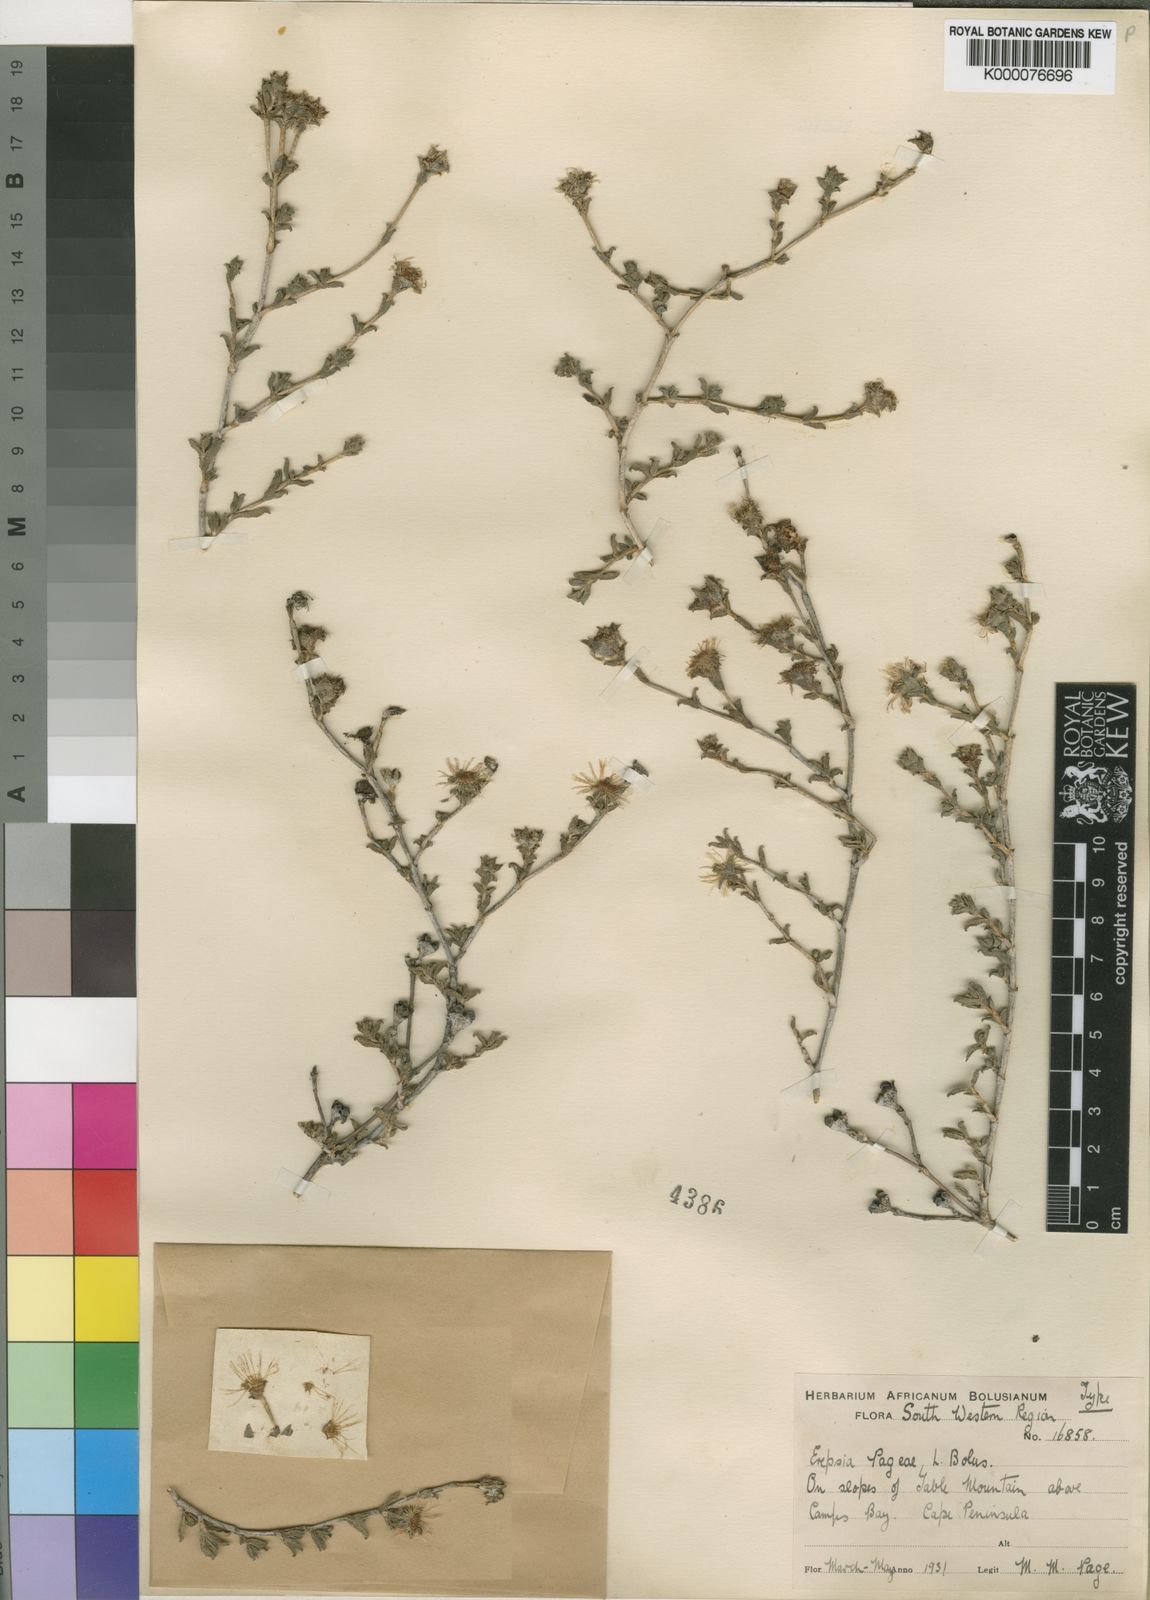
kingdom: Plantae
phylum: Tracheophyta
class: Magnoliopsida
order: Caryophyllales
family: Aizoaceae
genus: Erepsia
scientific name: Erepsia patula
